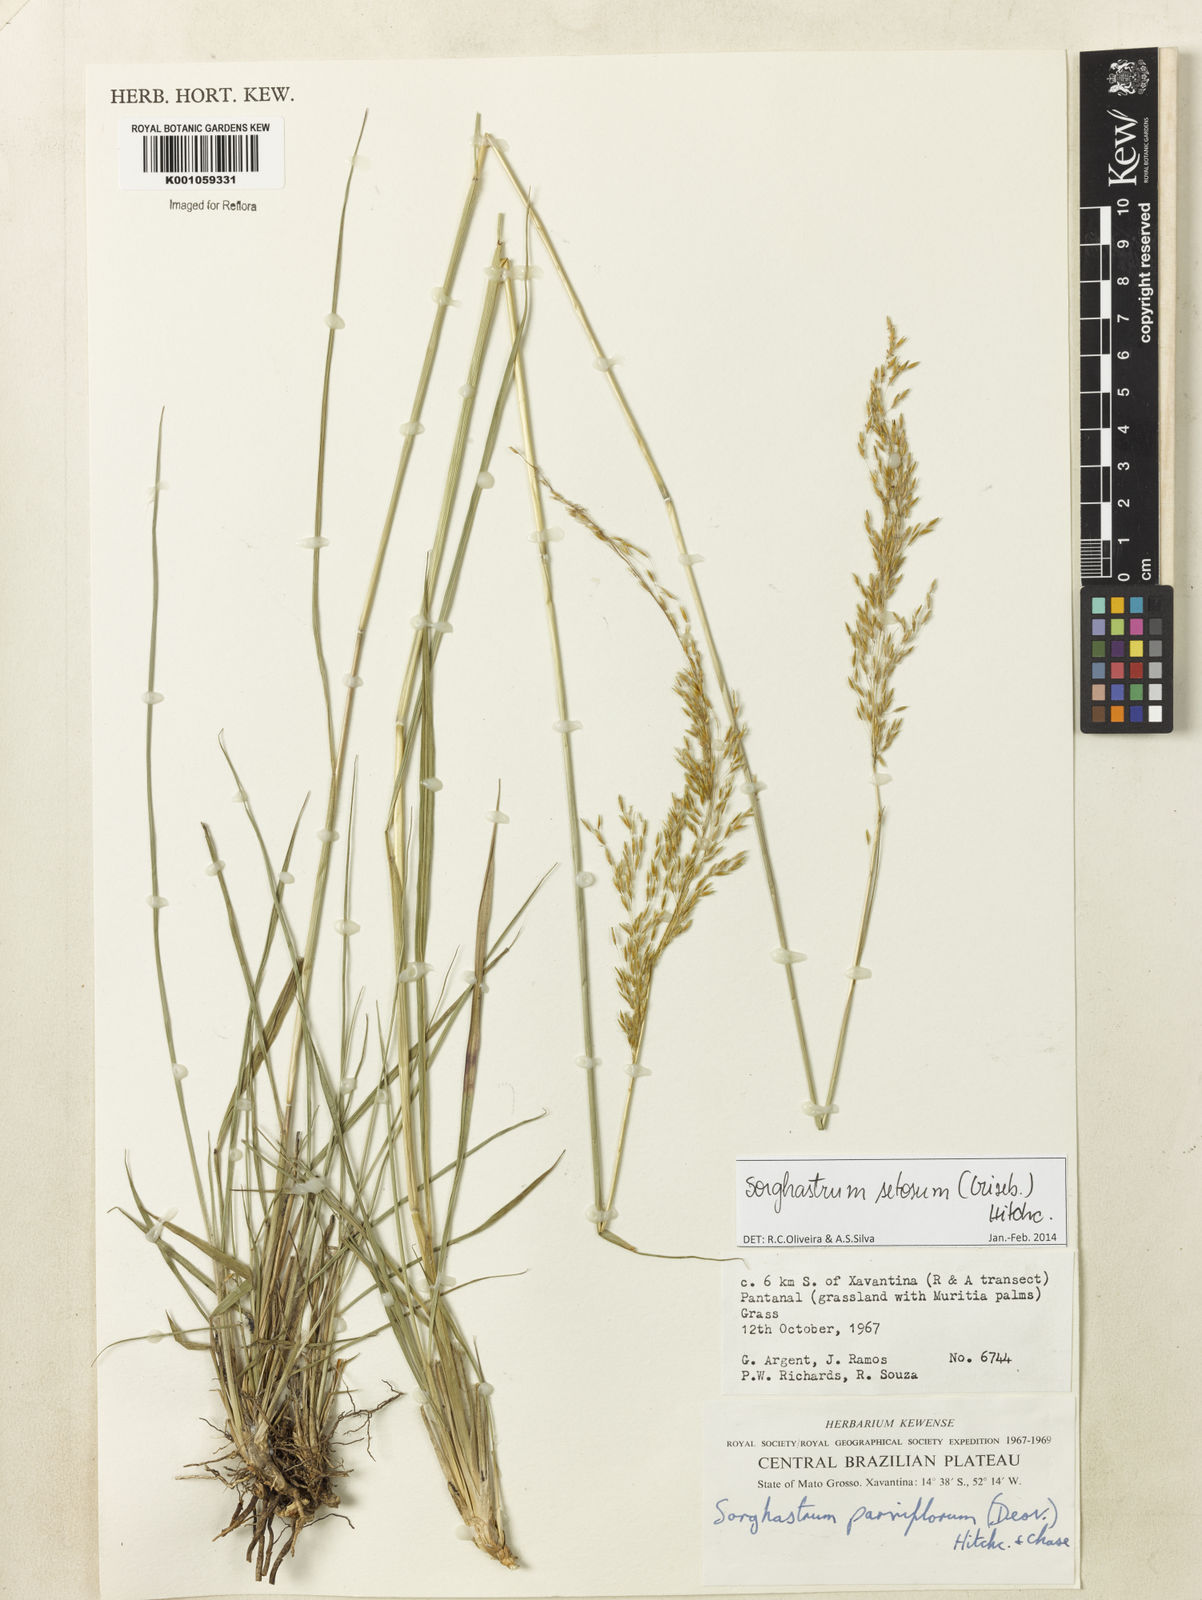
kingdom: Plantae
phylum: Tracheophyta
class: Liliopsida
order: Poales
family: Poaceae
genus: Sorghastrum
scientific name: Sorghastrum setosum
